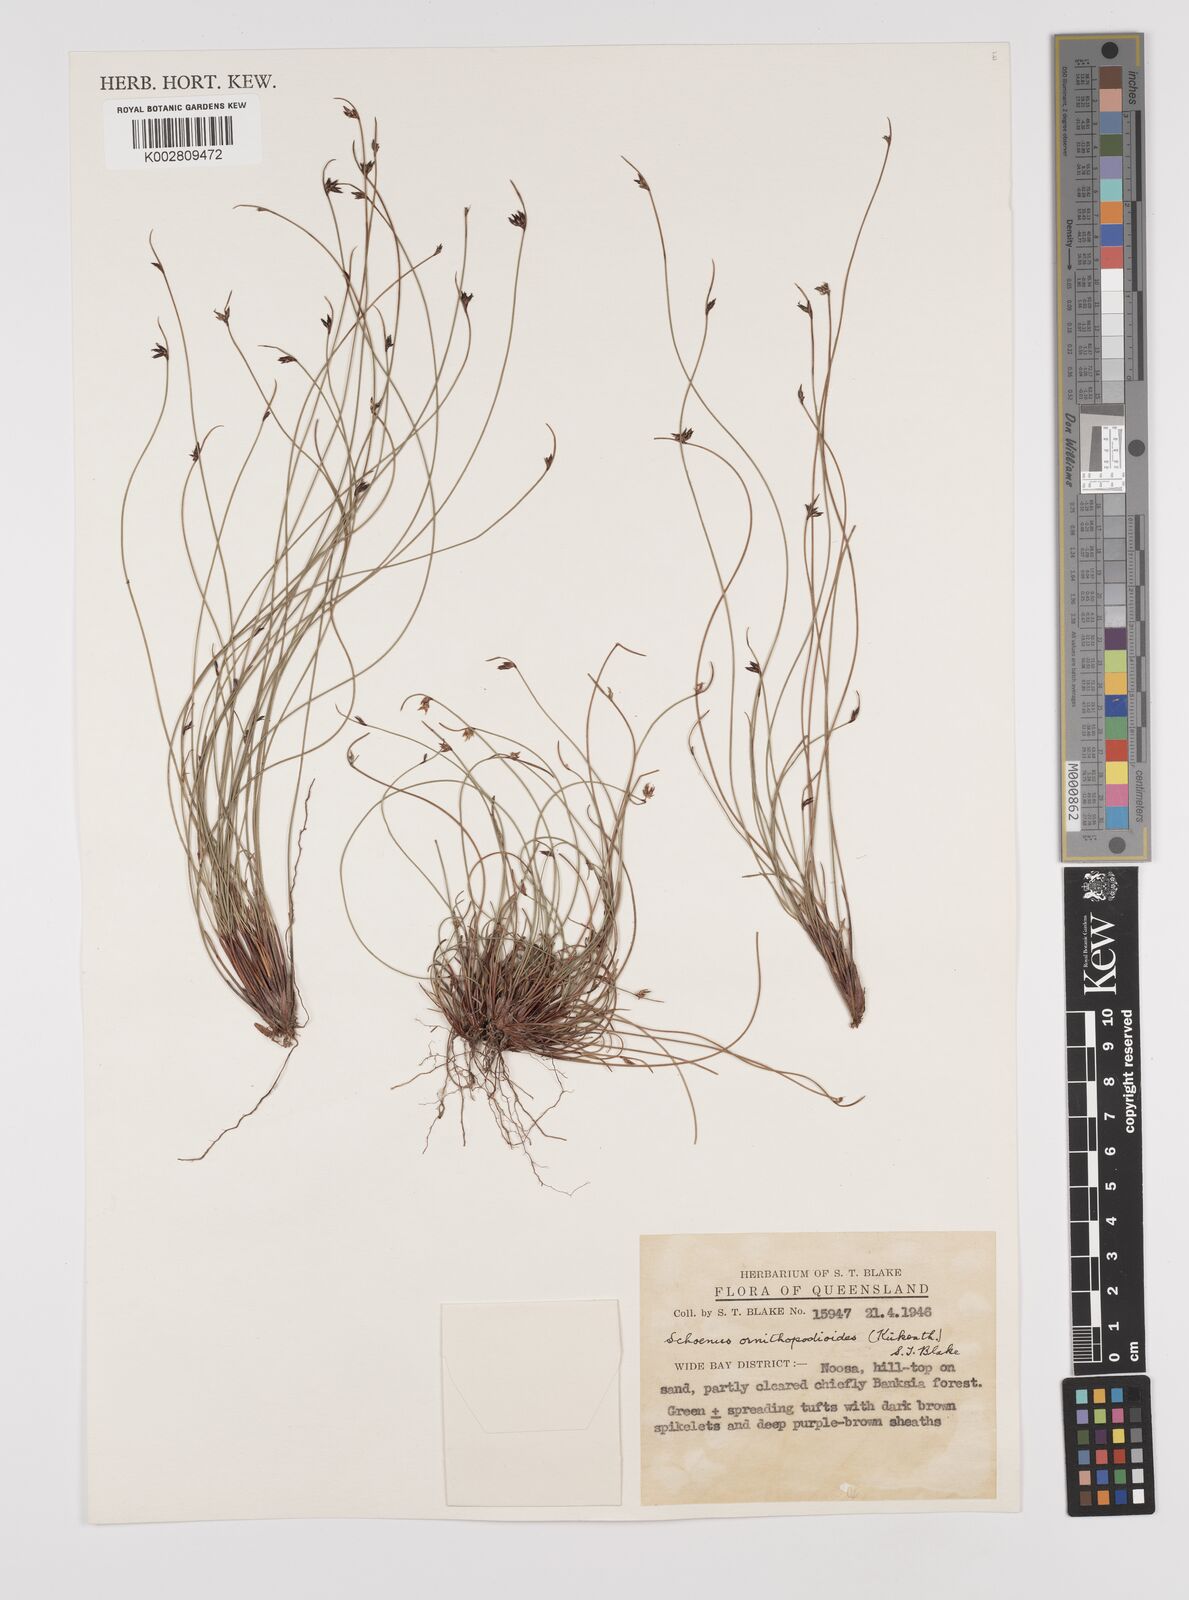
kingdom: Plantae
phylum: Tracheophyta
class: Liliopsida
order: Poales
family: Cyperaceae
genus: Schoenus
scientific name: Schoenus ornithopodioides
